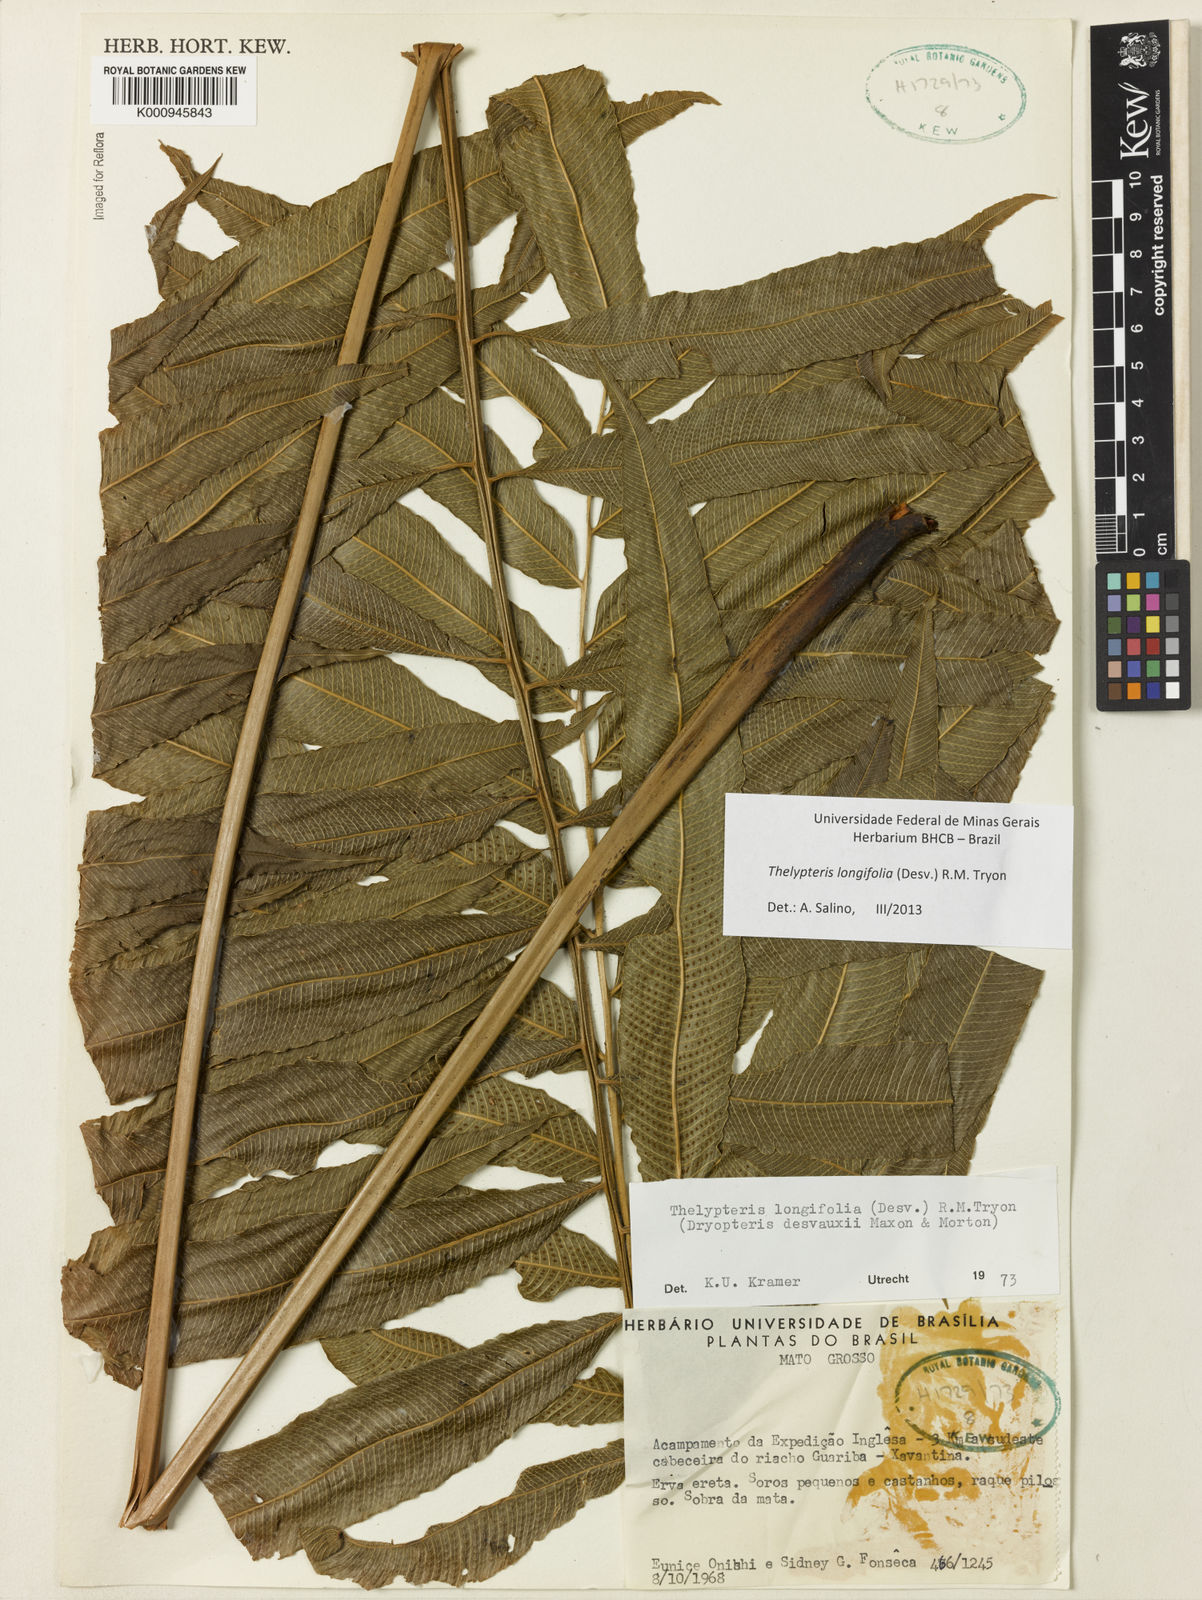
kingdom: Plantae
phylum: Tracheophyta
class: Polypodiopsida
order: Polypodiales
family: Thelypteridaceae
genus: Meniscium
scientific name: Meniscium longifolium
